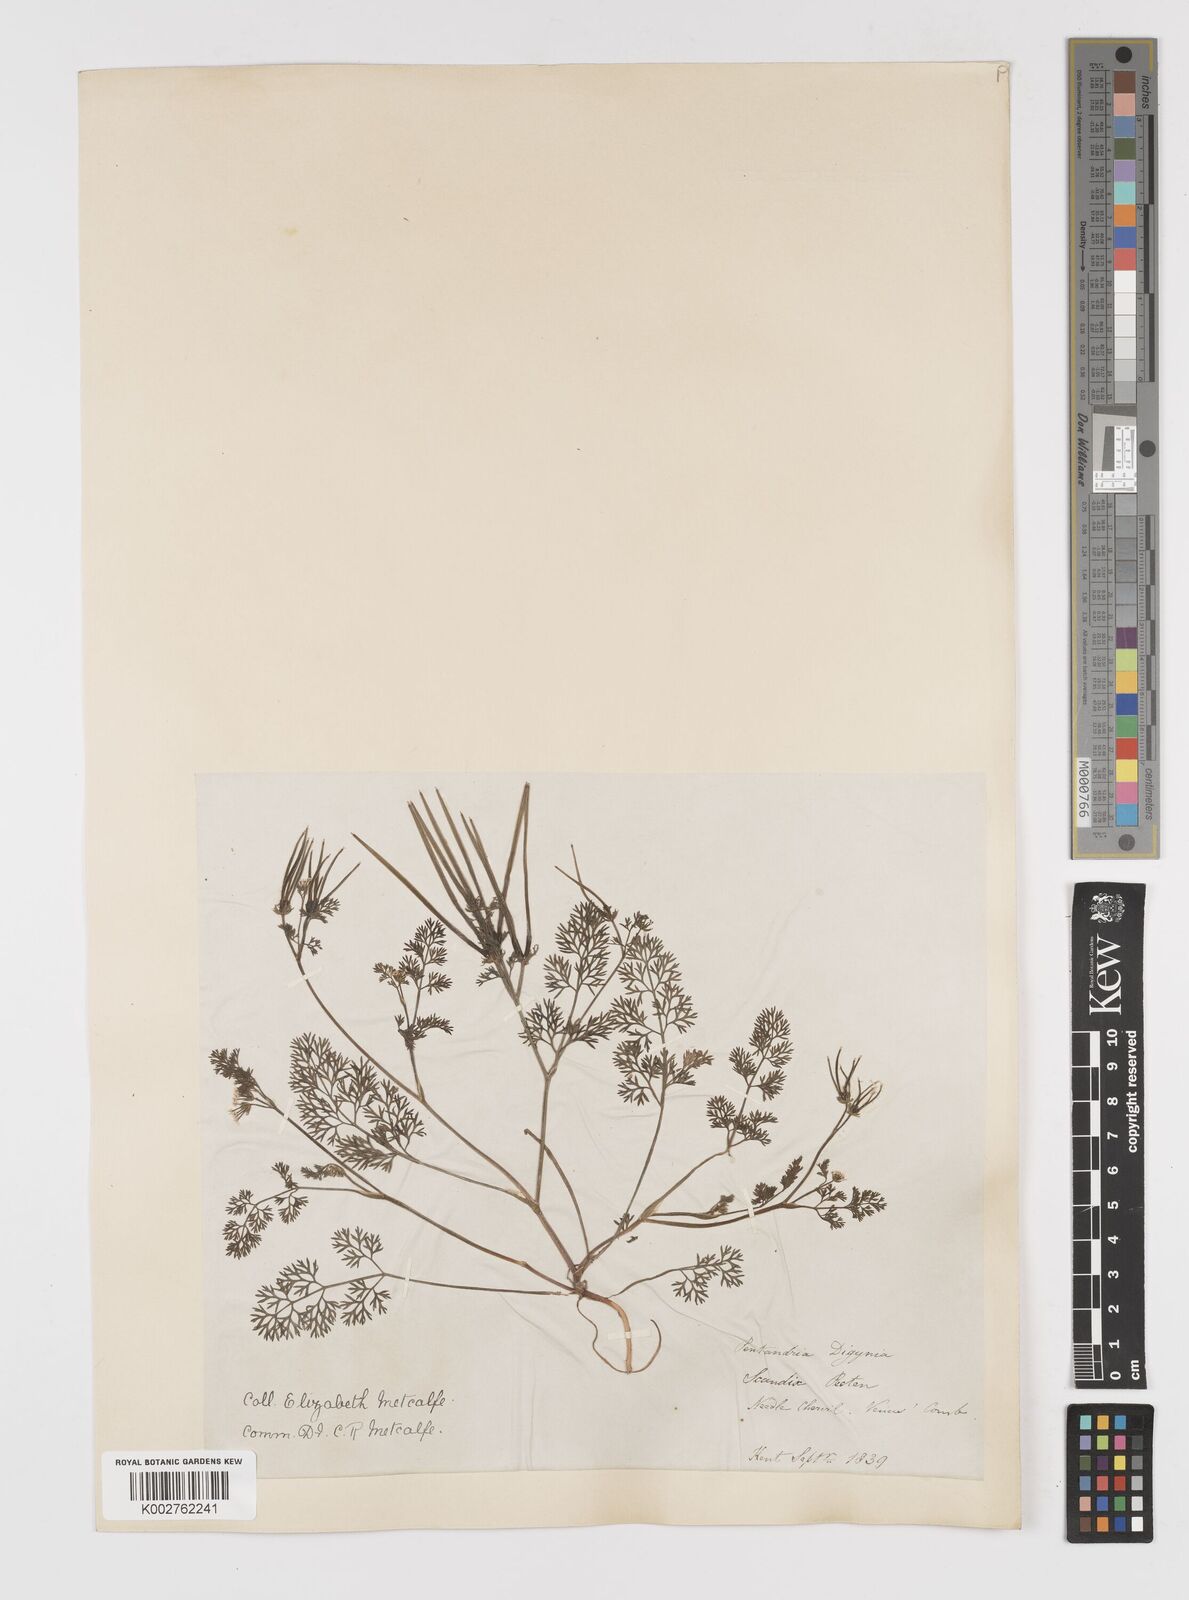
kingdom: Plantae
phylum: Tracheophyta
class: Magnoliopsida
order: Apiales
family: Apiaceae
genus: Scandix
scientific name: Scandix pecten-veneris
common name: Shepherd's-needle
